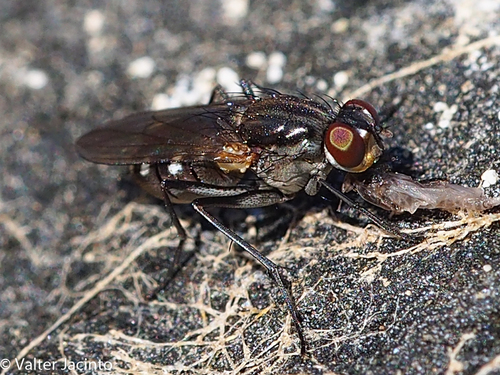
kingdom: Animalia
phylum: Arthropoda
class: Insecta
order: Diptera
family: Muscidae
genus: Lispe
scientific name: Lispe nivalis
